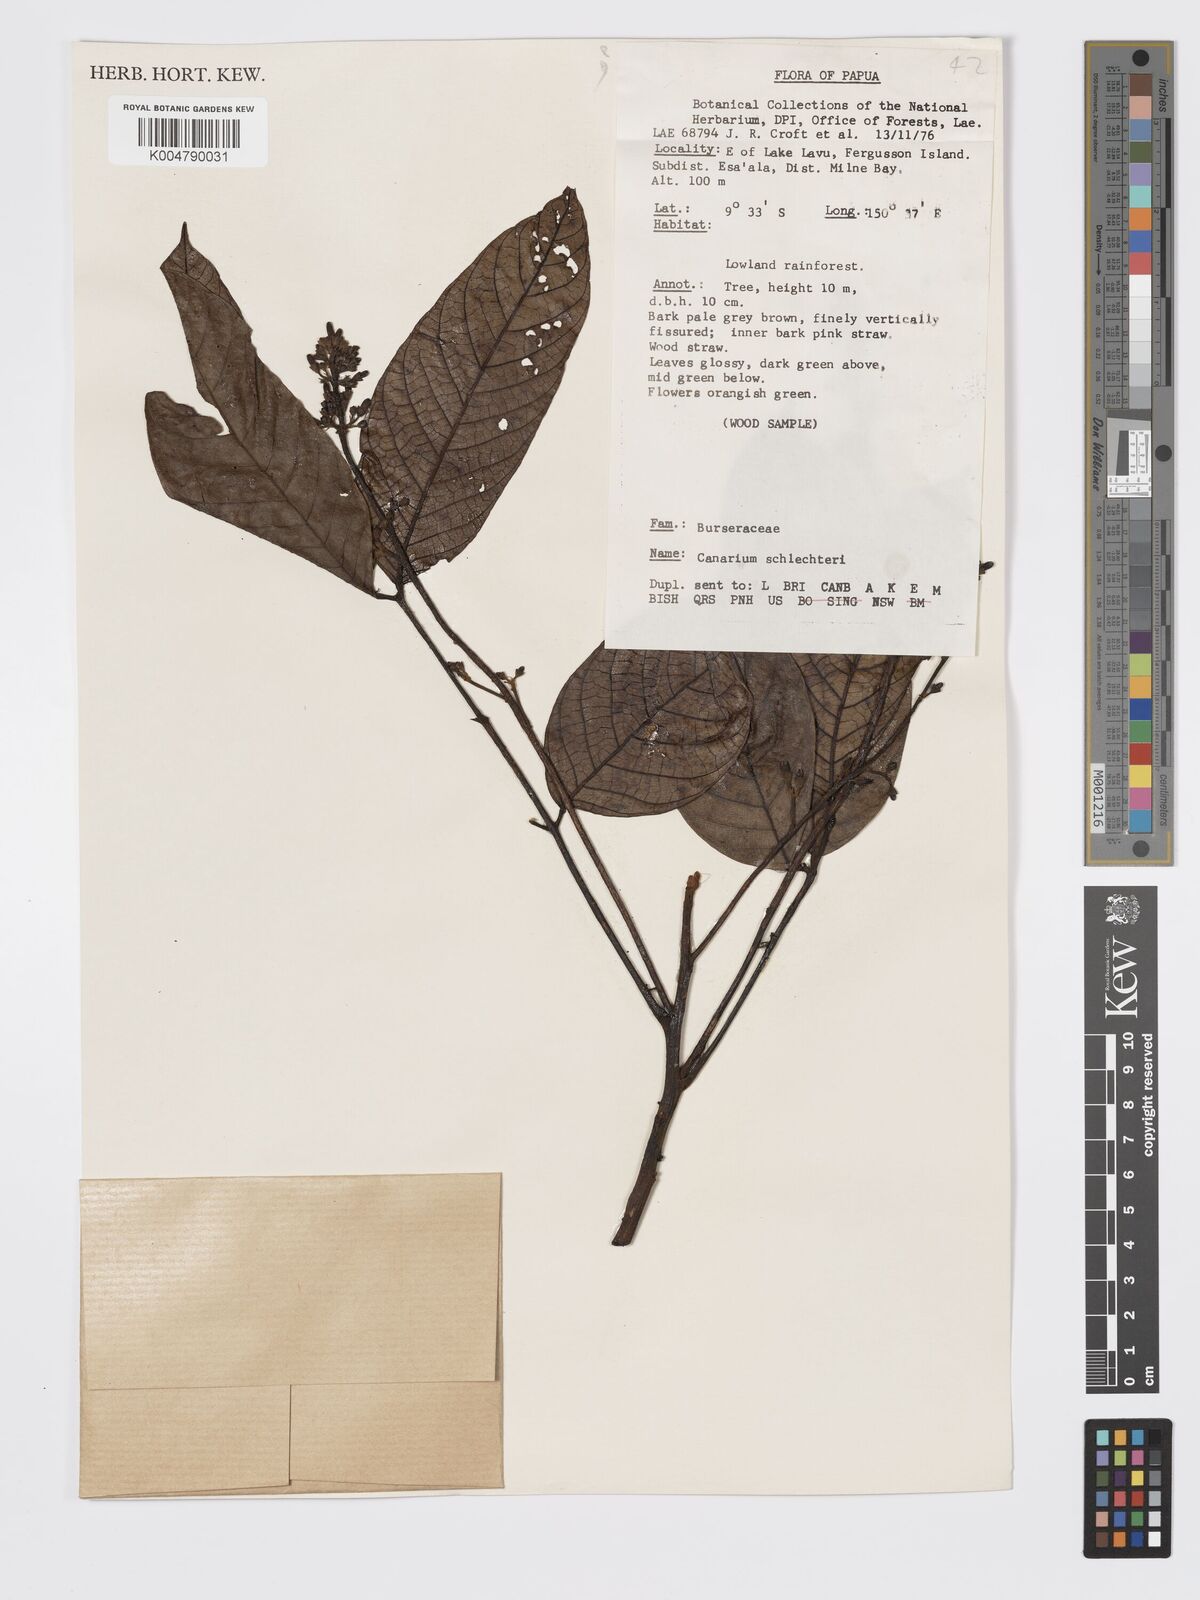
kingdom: Plantae
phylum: Tracheophyta
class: Magnoliopsida
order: Sapindales
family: Burseraceae
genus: Canarium
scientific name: Canarium schlechteri
